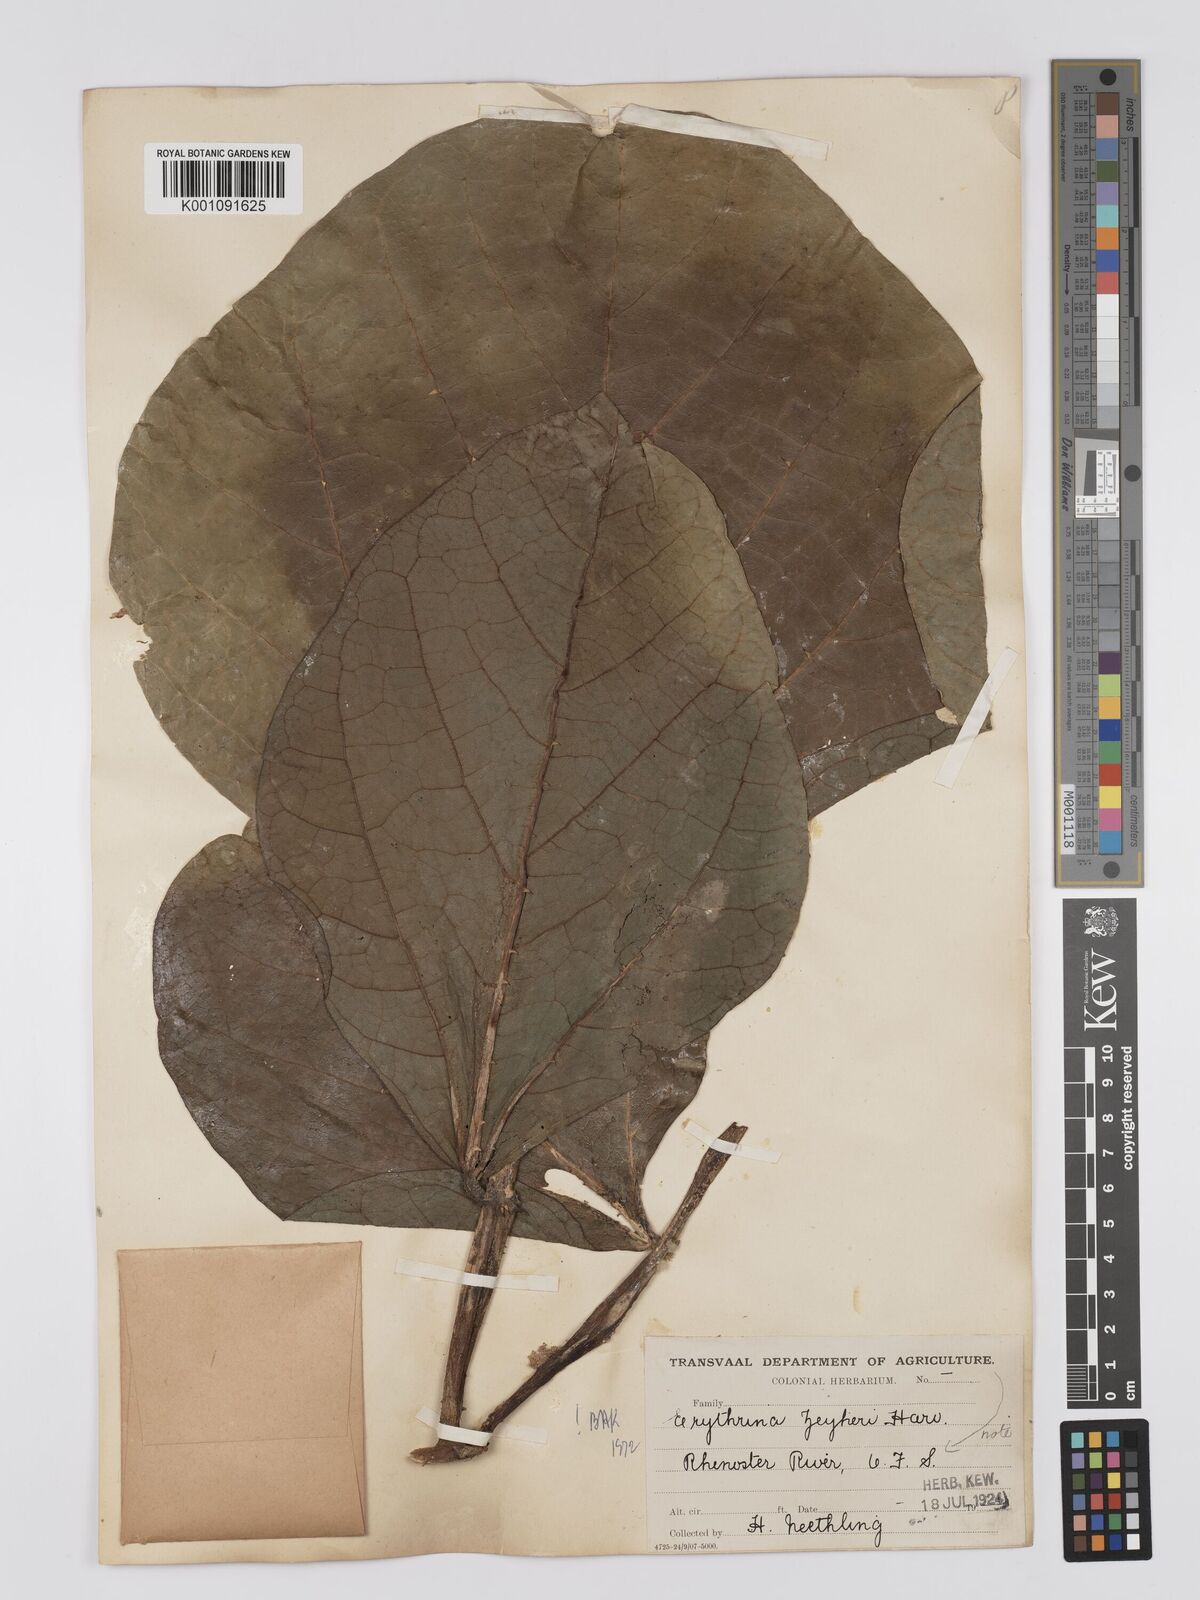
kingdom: Plantae
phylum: Tracheophyta
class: Magnoliopsida
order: Fabales
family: Fabaceae
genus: Erythrina
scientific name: Erythrina zeyheri
